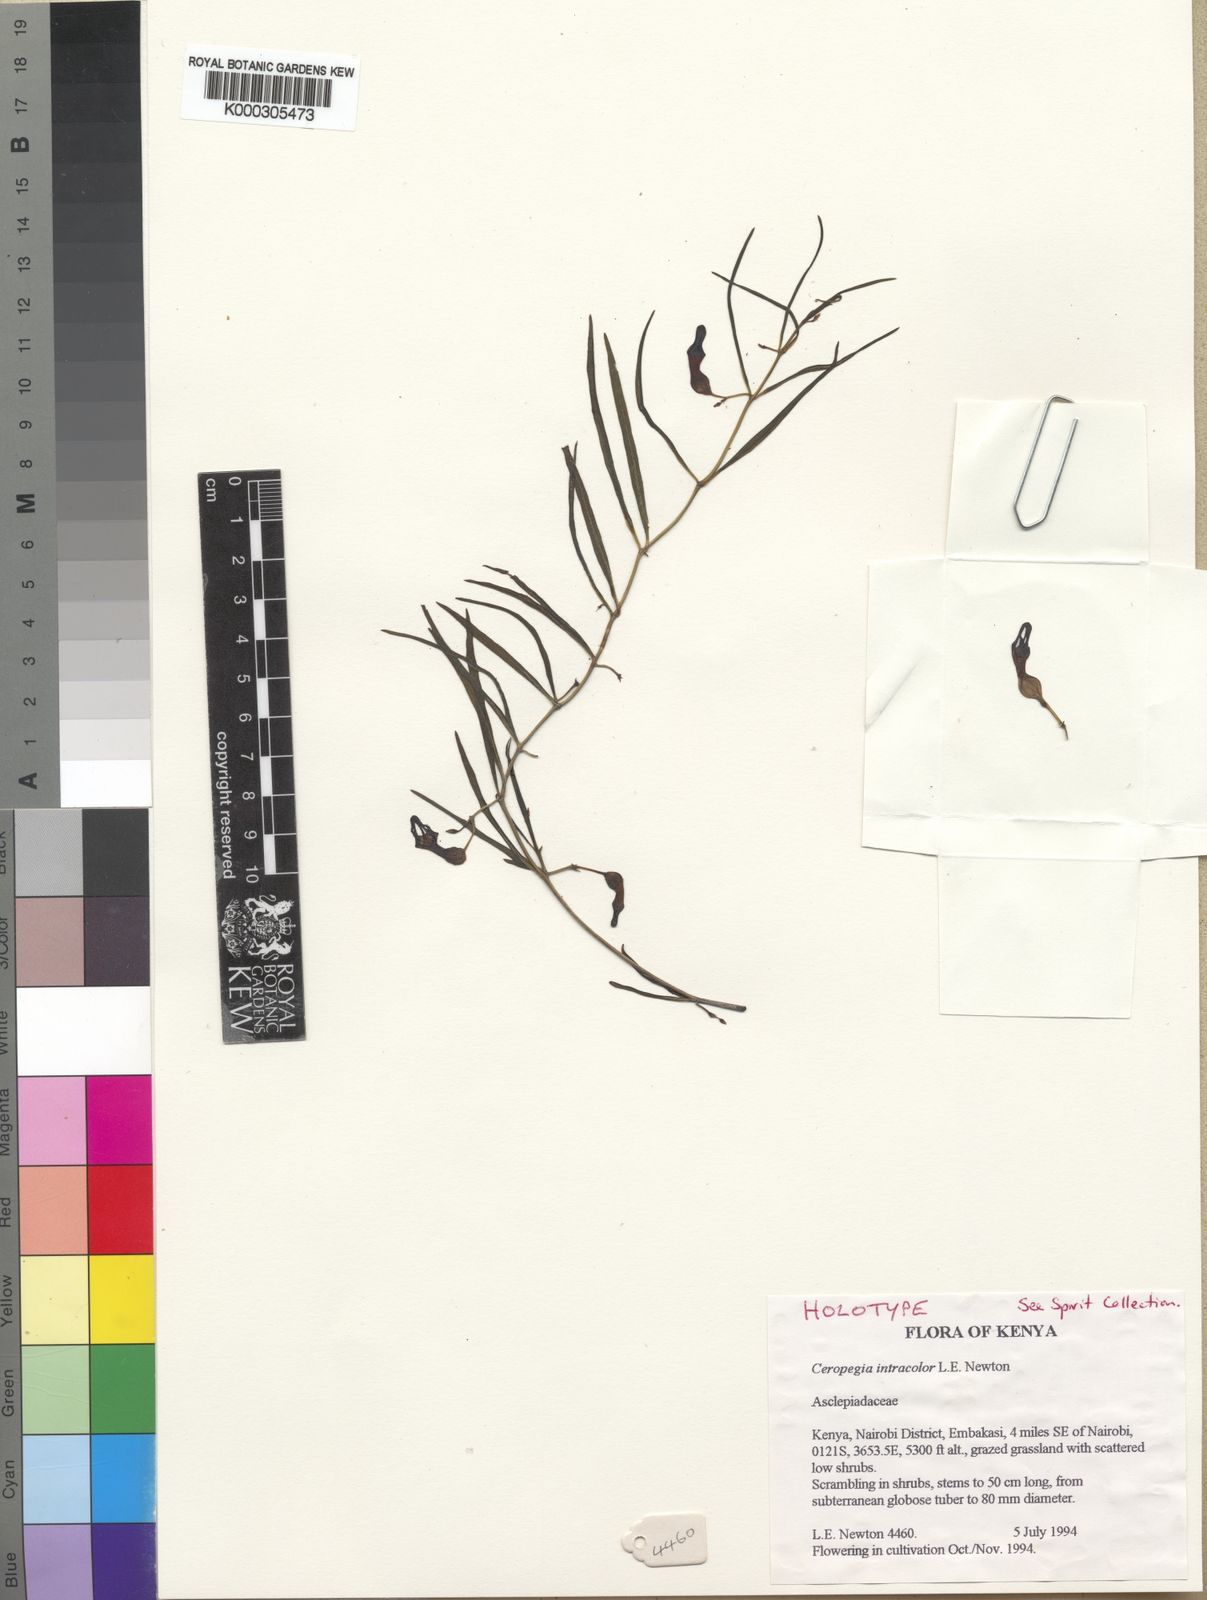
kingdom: Plantae
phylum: Tracheophyta
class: Magnoliopsida
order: Gentianales
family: Apocynaceae
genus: Ceropegia
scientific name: Ceropegia collaricorona
